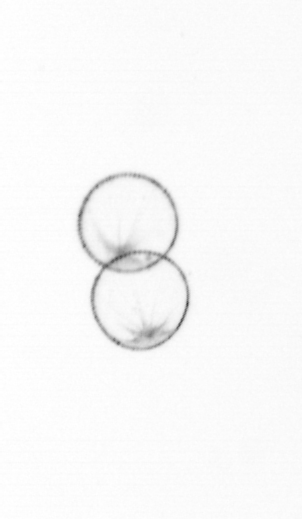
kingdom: Chromista
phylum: Ochrophyta
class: Bacillariophyceae
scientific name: Bacillariophyceae
